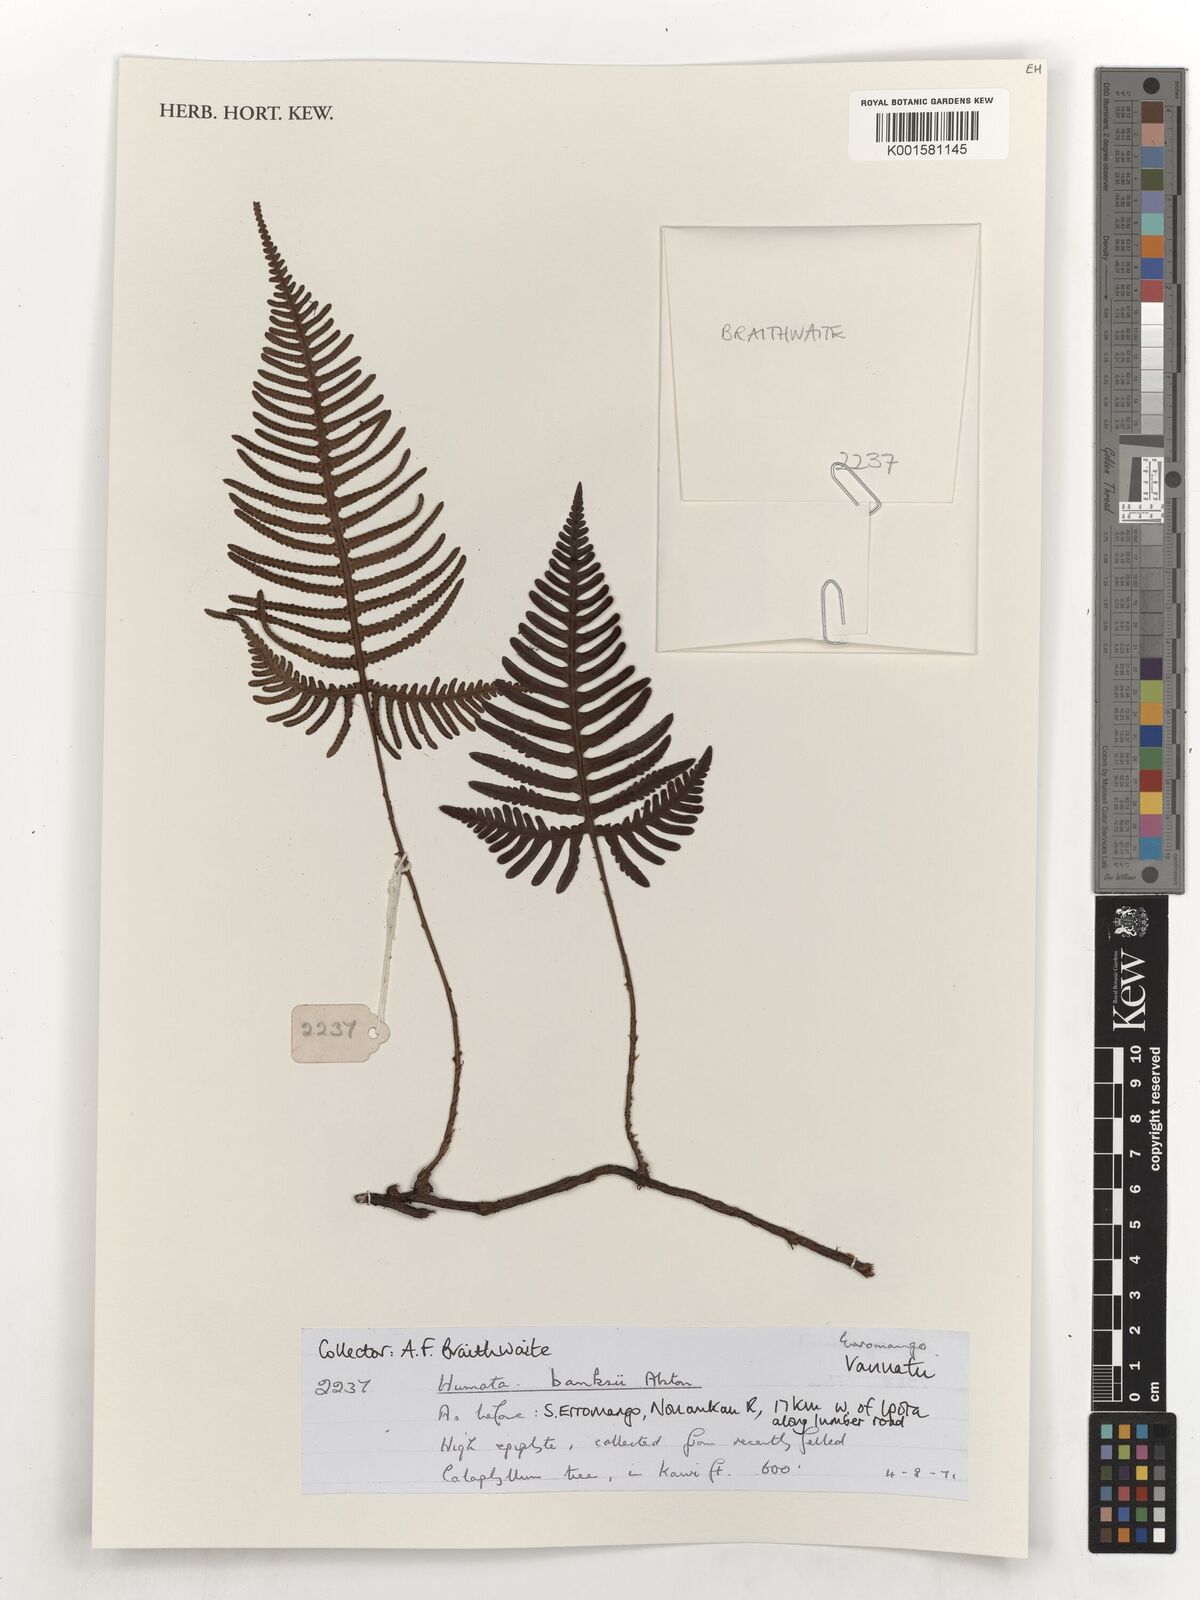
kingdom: Plantae
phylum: Tracheophyta
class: Polypodiopsida
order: Polypodiales
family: Davalliaceae
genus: Davallia
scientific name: Davallia pectinata
